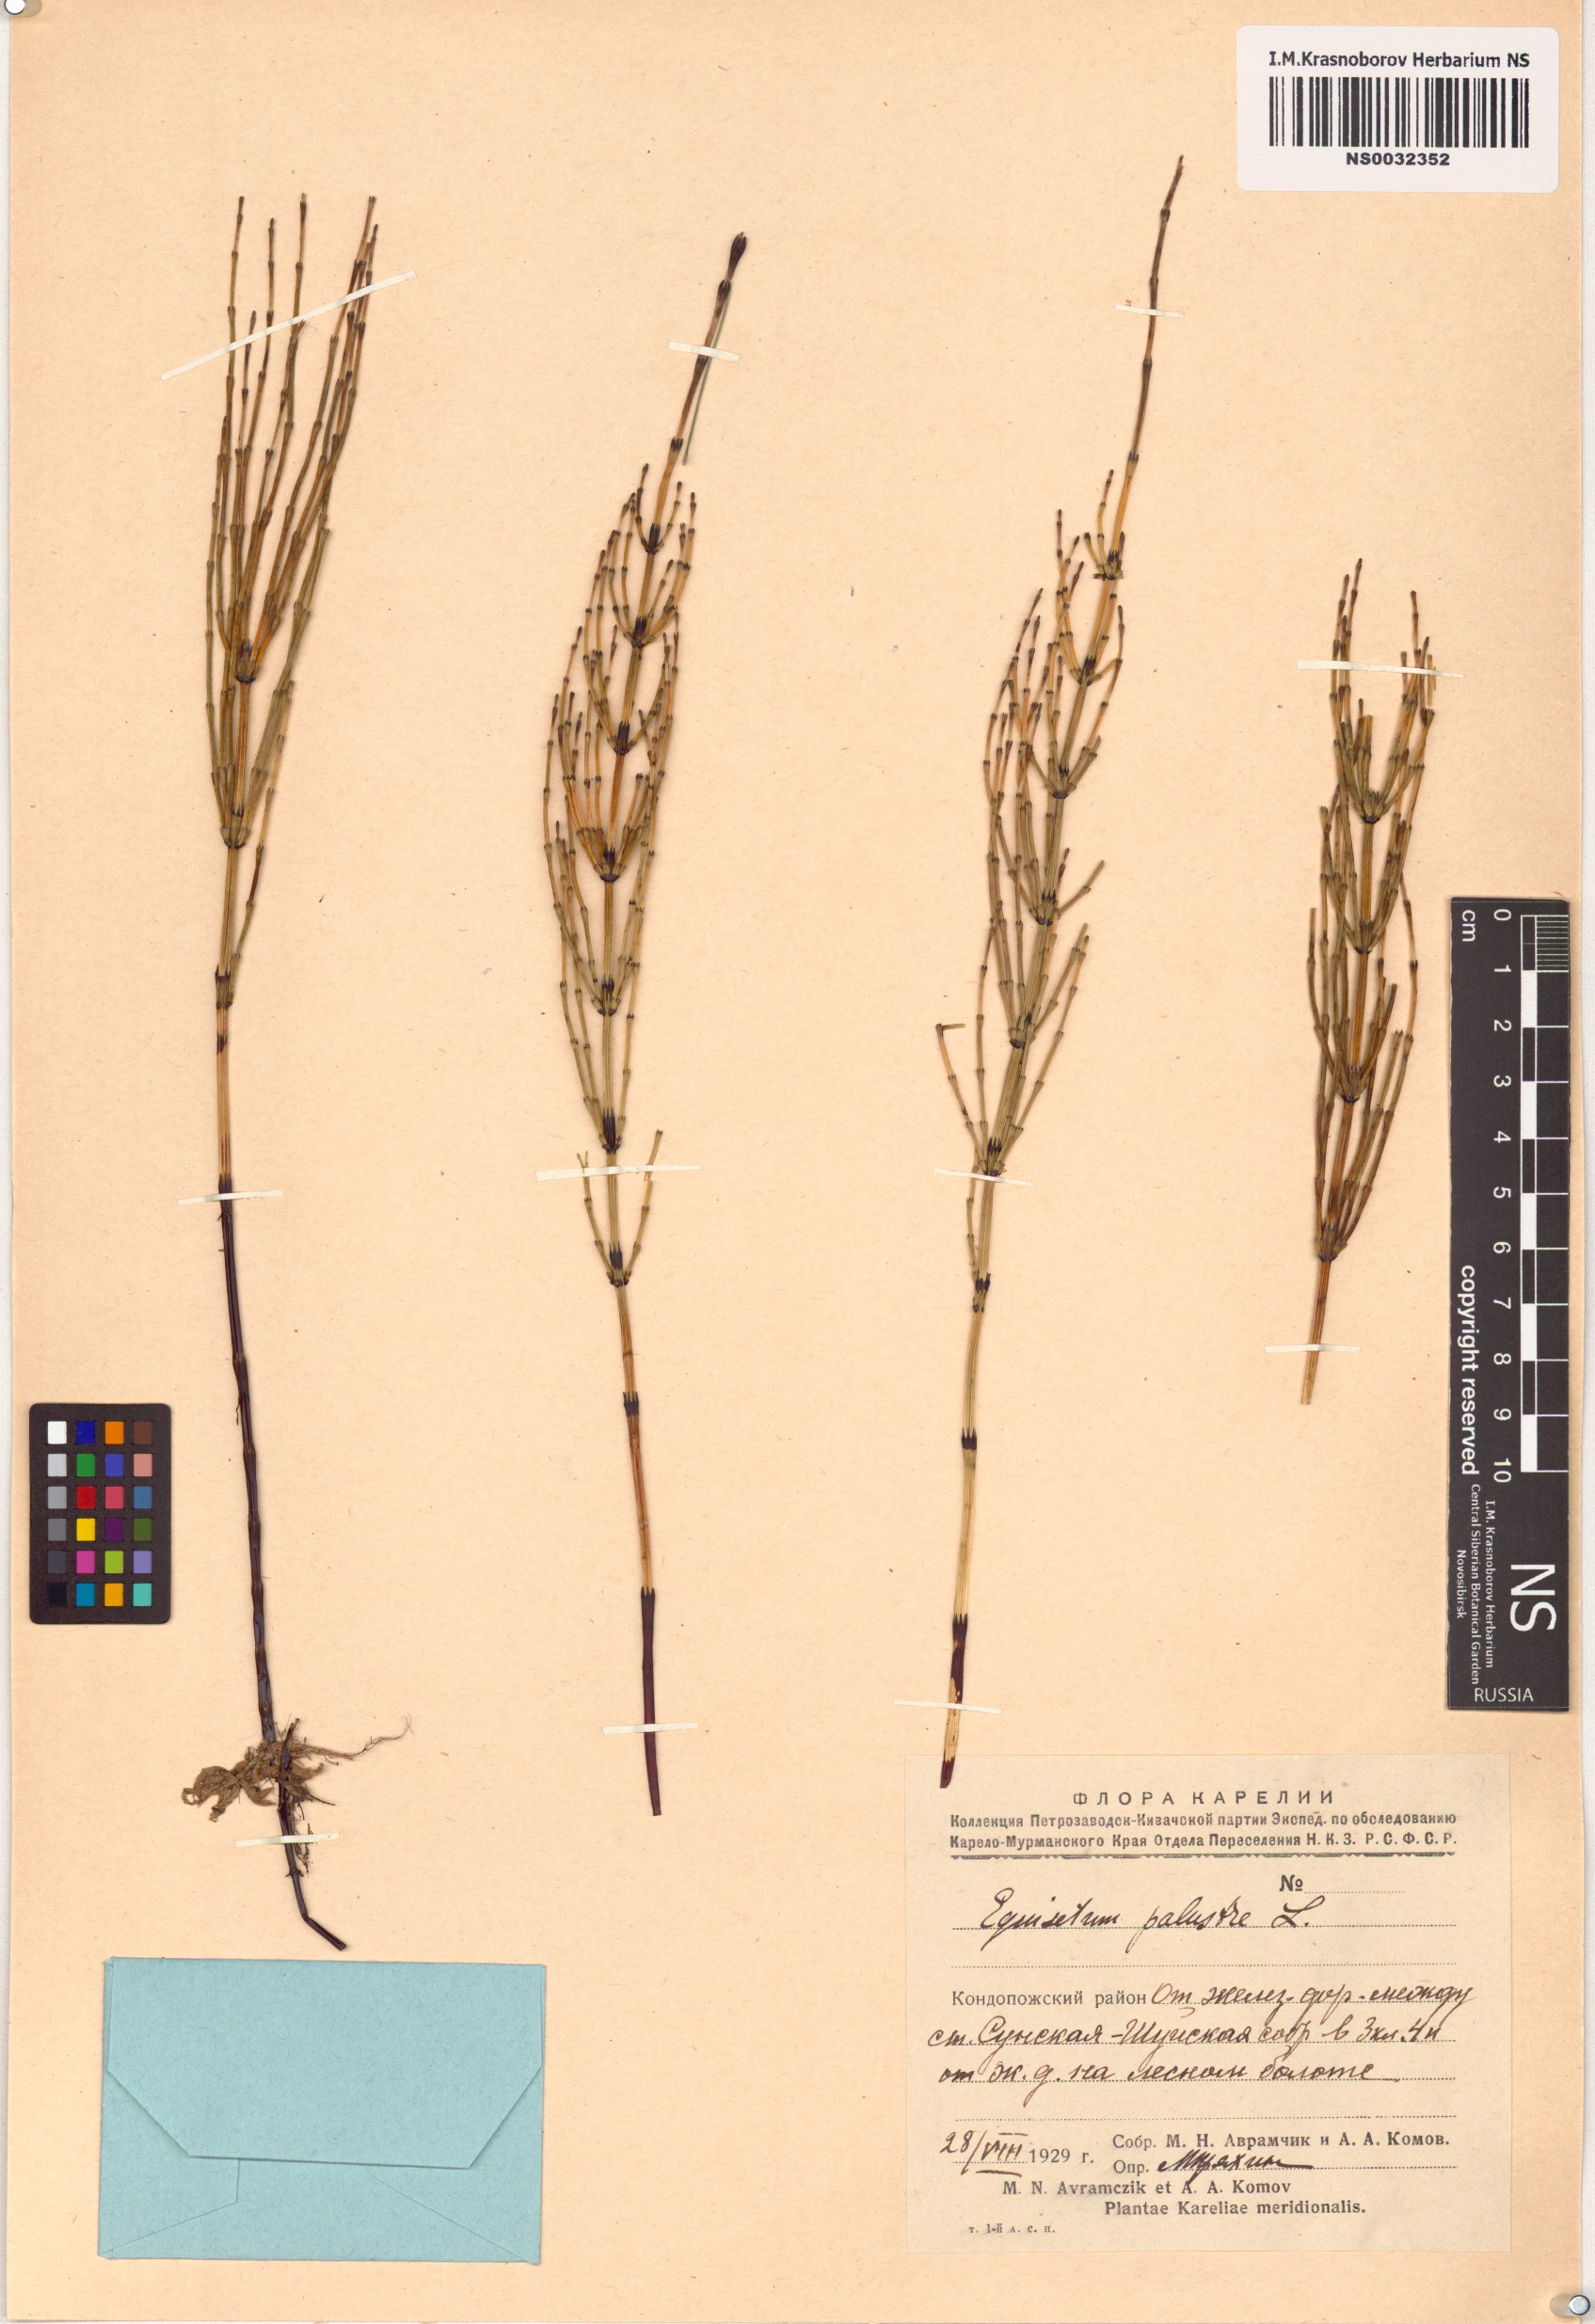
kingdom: Plantae
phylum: Tracheophyta
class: Polypodiopsida
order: Equisetales
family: Equisetaceae
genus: Equisetum
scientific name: Equisetum palustre
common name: Marsh horsetail
